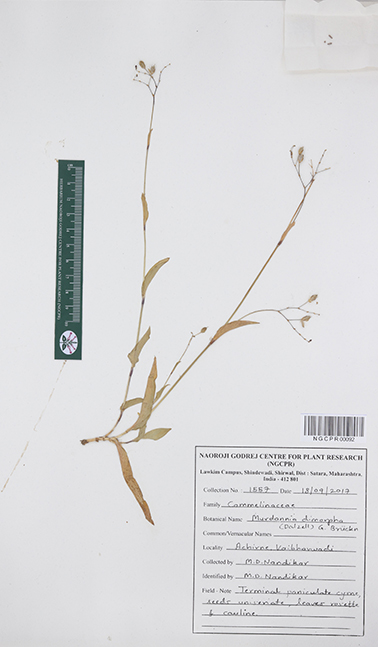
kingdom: Plantae
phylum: Tracheophyta
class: Liliopsida
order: Commelinales
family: Commelinaceae
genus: Murdannia
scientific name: Murdannia dimorpha
